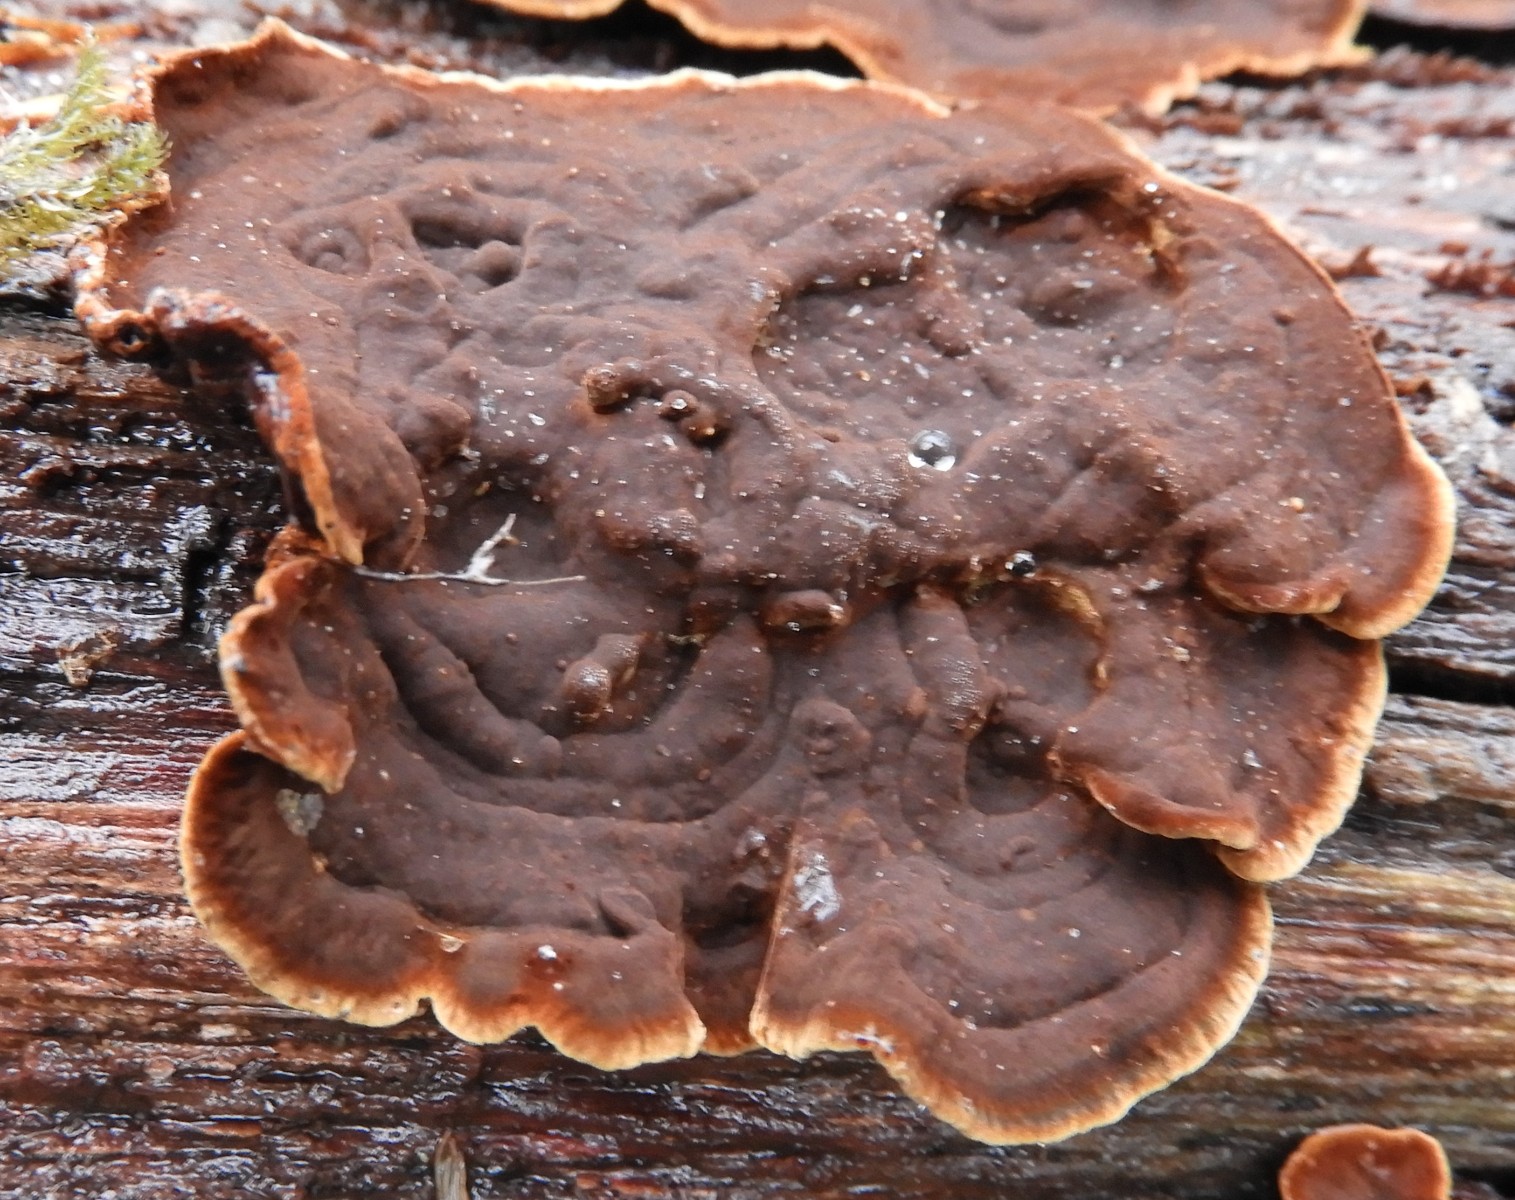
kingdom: Fungi
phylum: Basidiomycota
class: Agaricomycetes
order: Hymenochaetales
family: Hymenochaetaceae
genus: Hymenochaete
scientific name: Hymenochaete rubiginosa
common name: stiv ruslædersvamp
